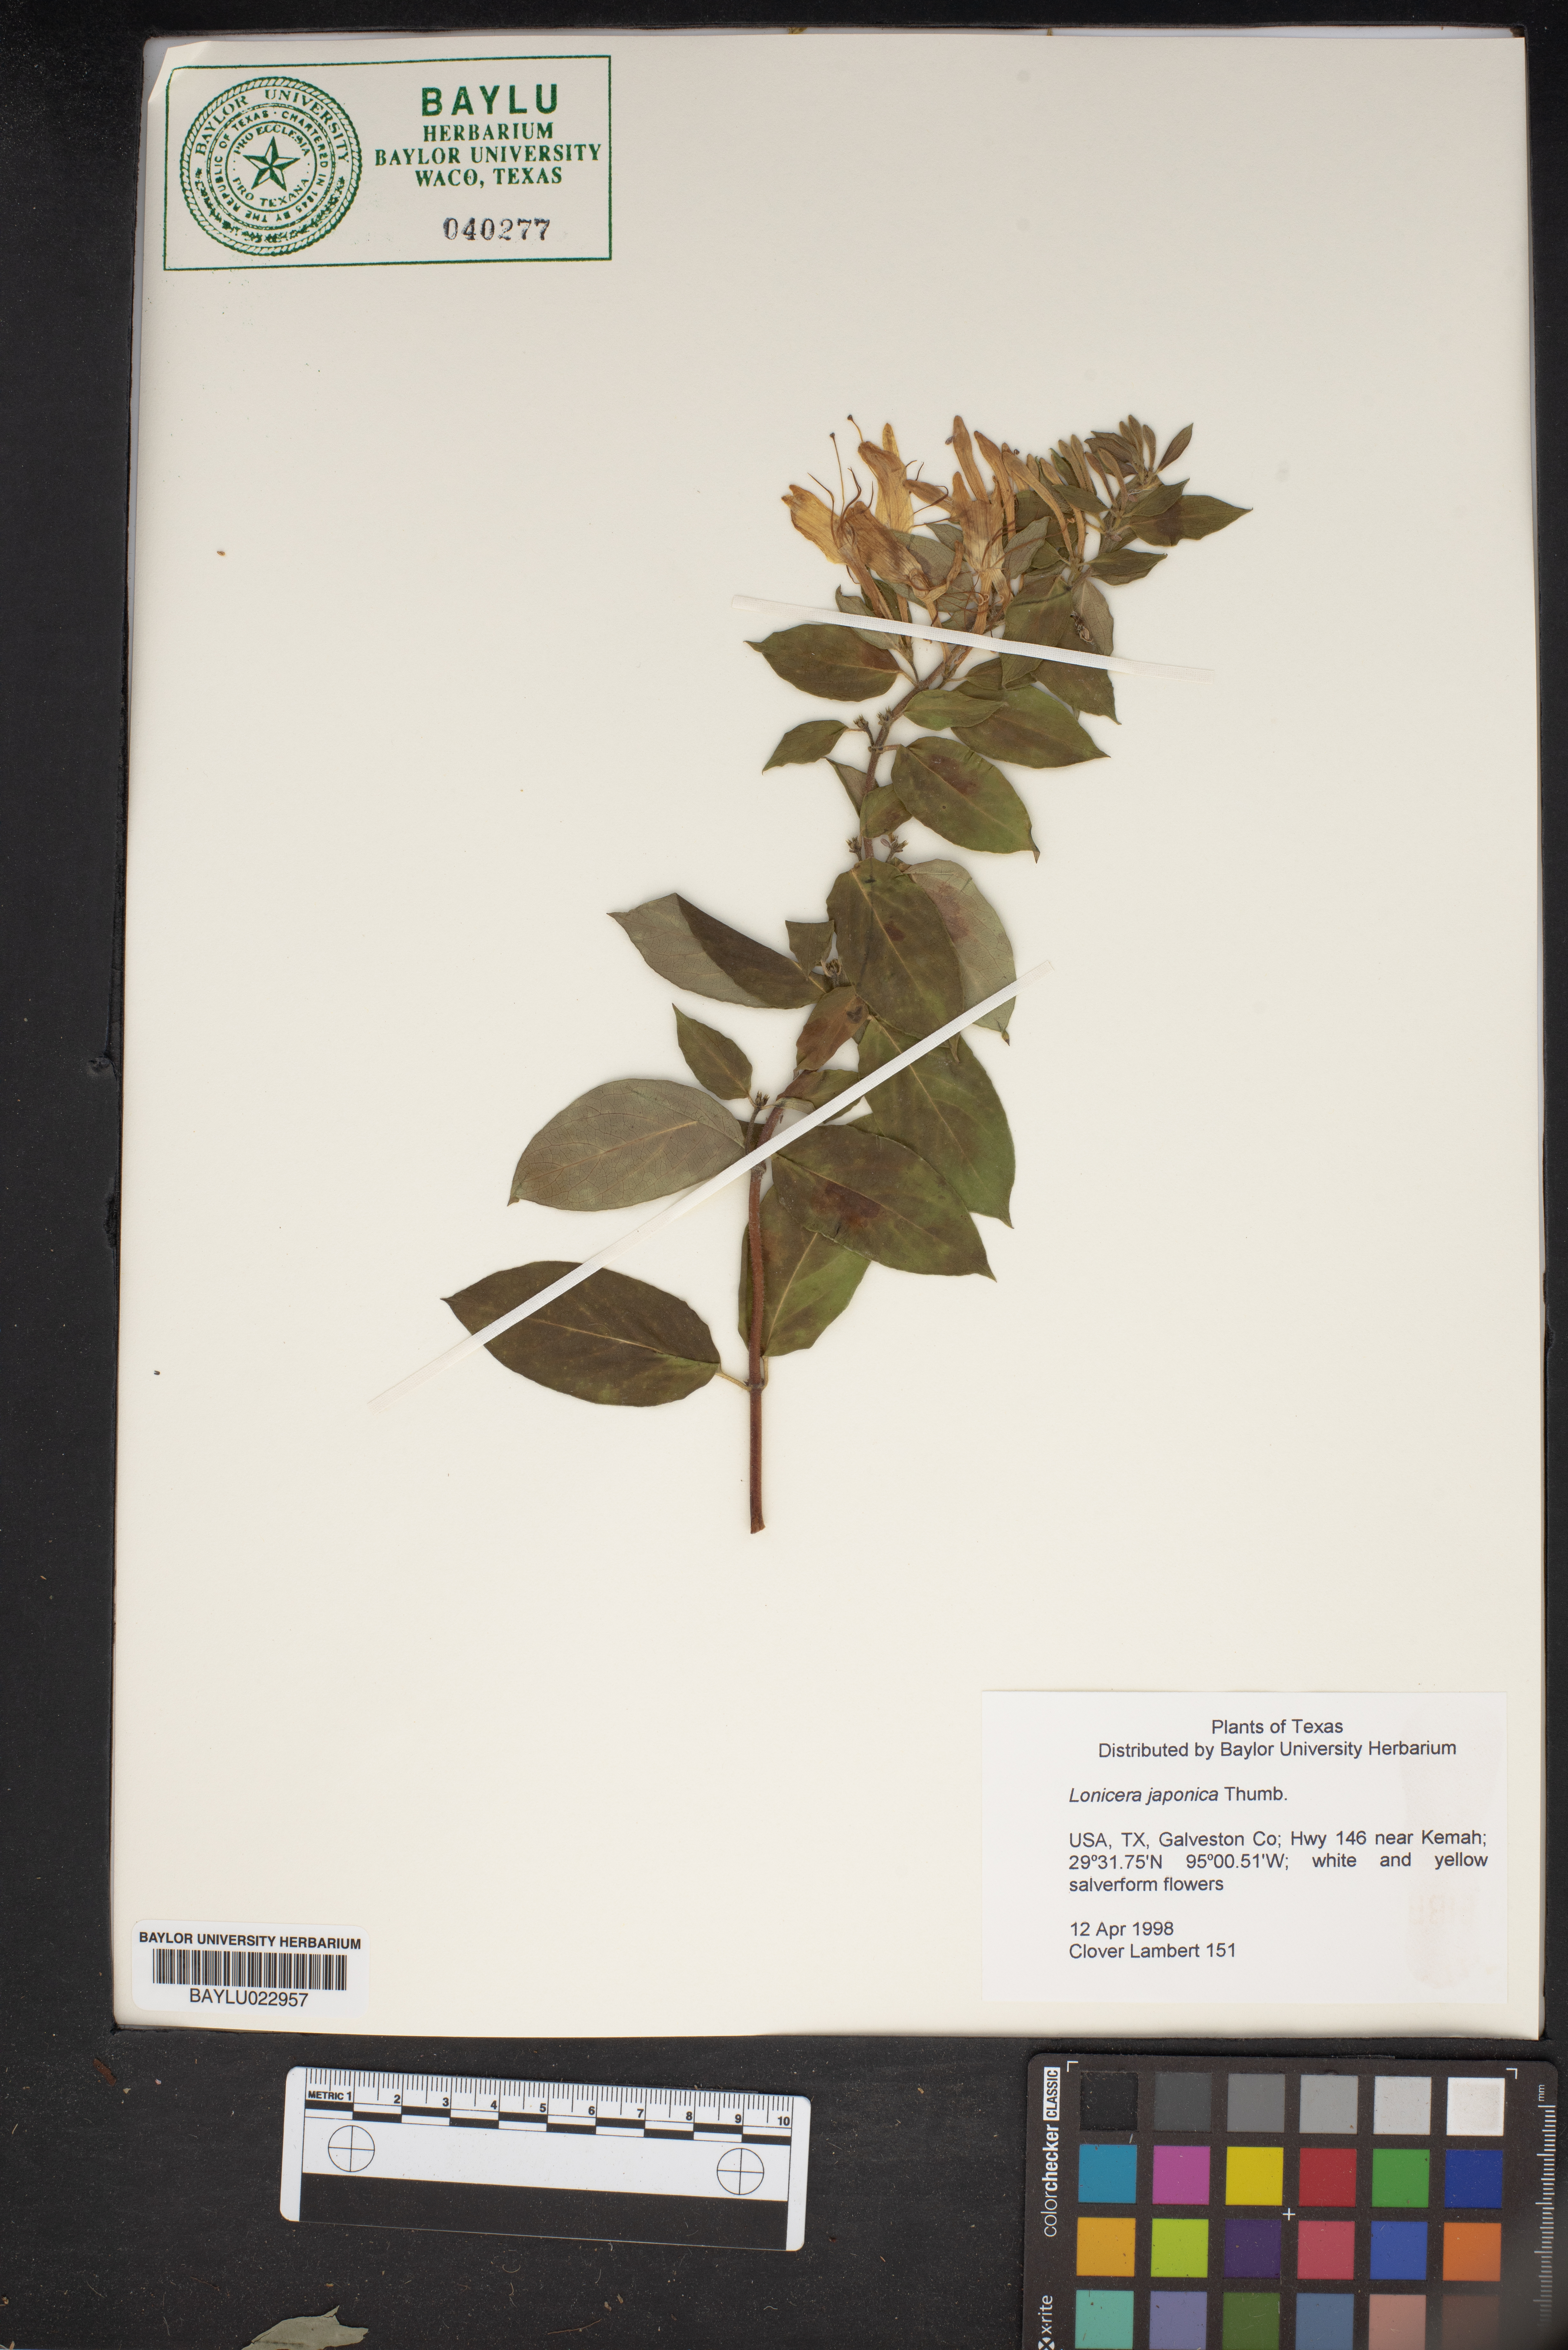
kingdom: Plantae
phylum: Tracheophyta
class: Magnoliopsida
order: Dipsacales
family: Caprifoliaceae
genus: Lonicera
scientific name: Lonicera japonica
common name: Japanese honeysuckle
